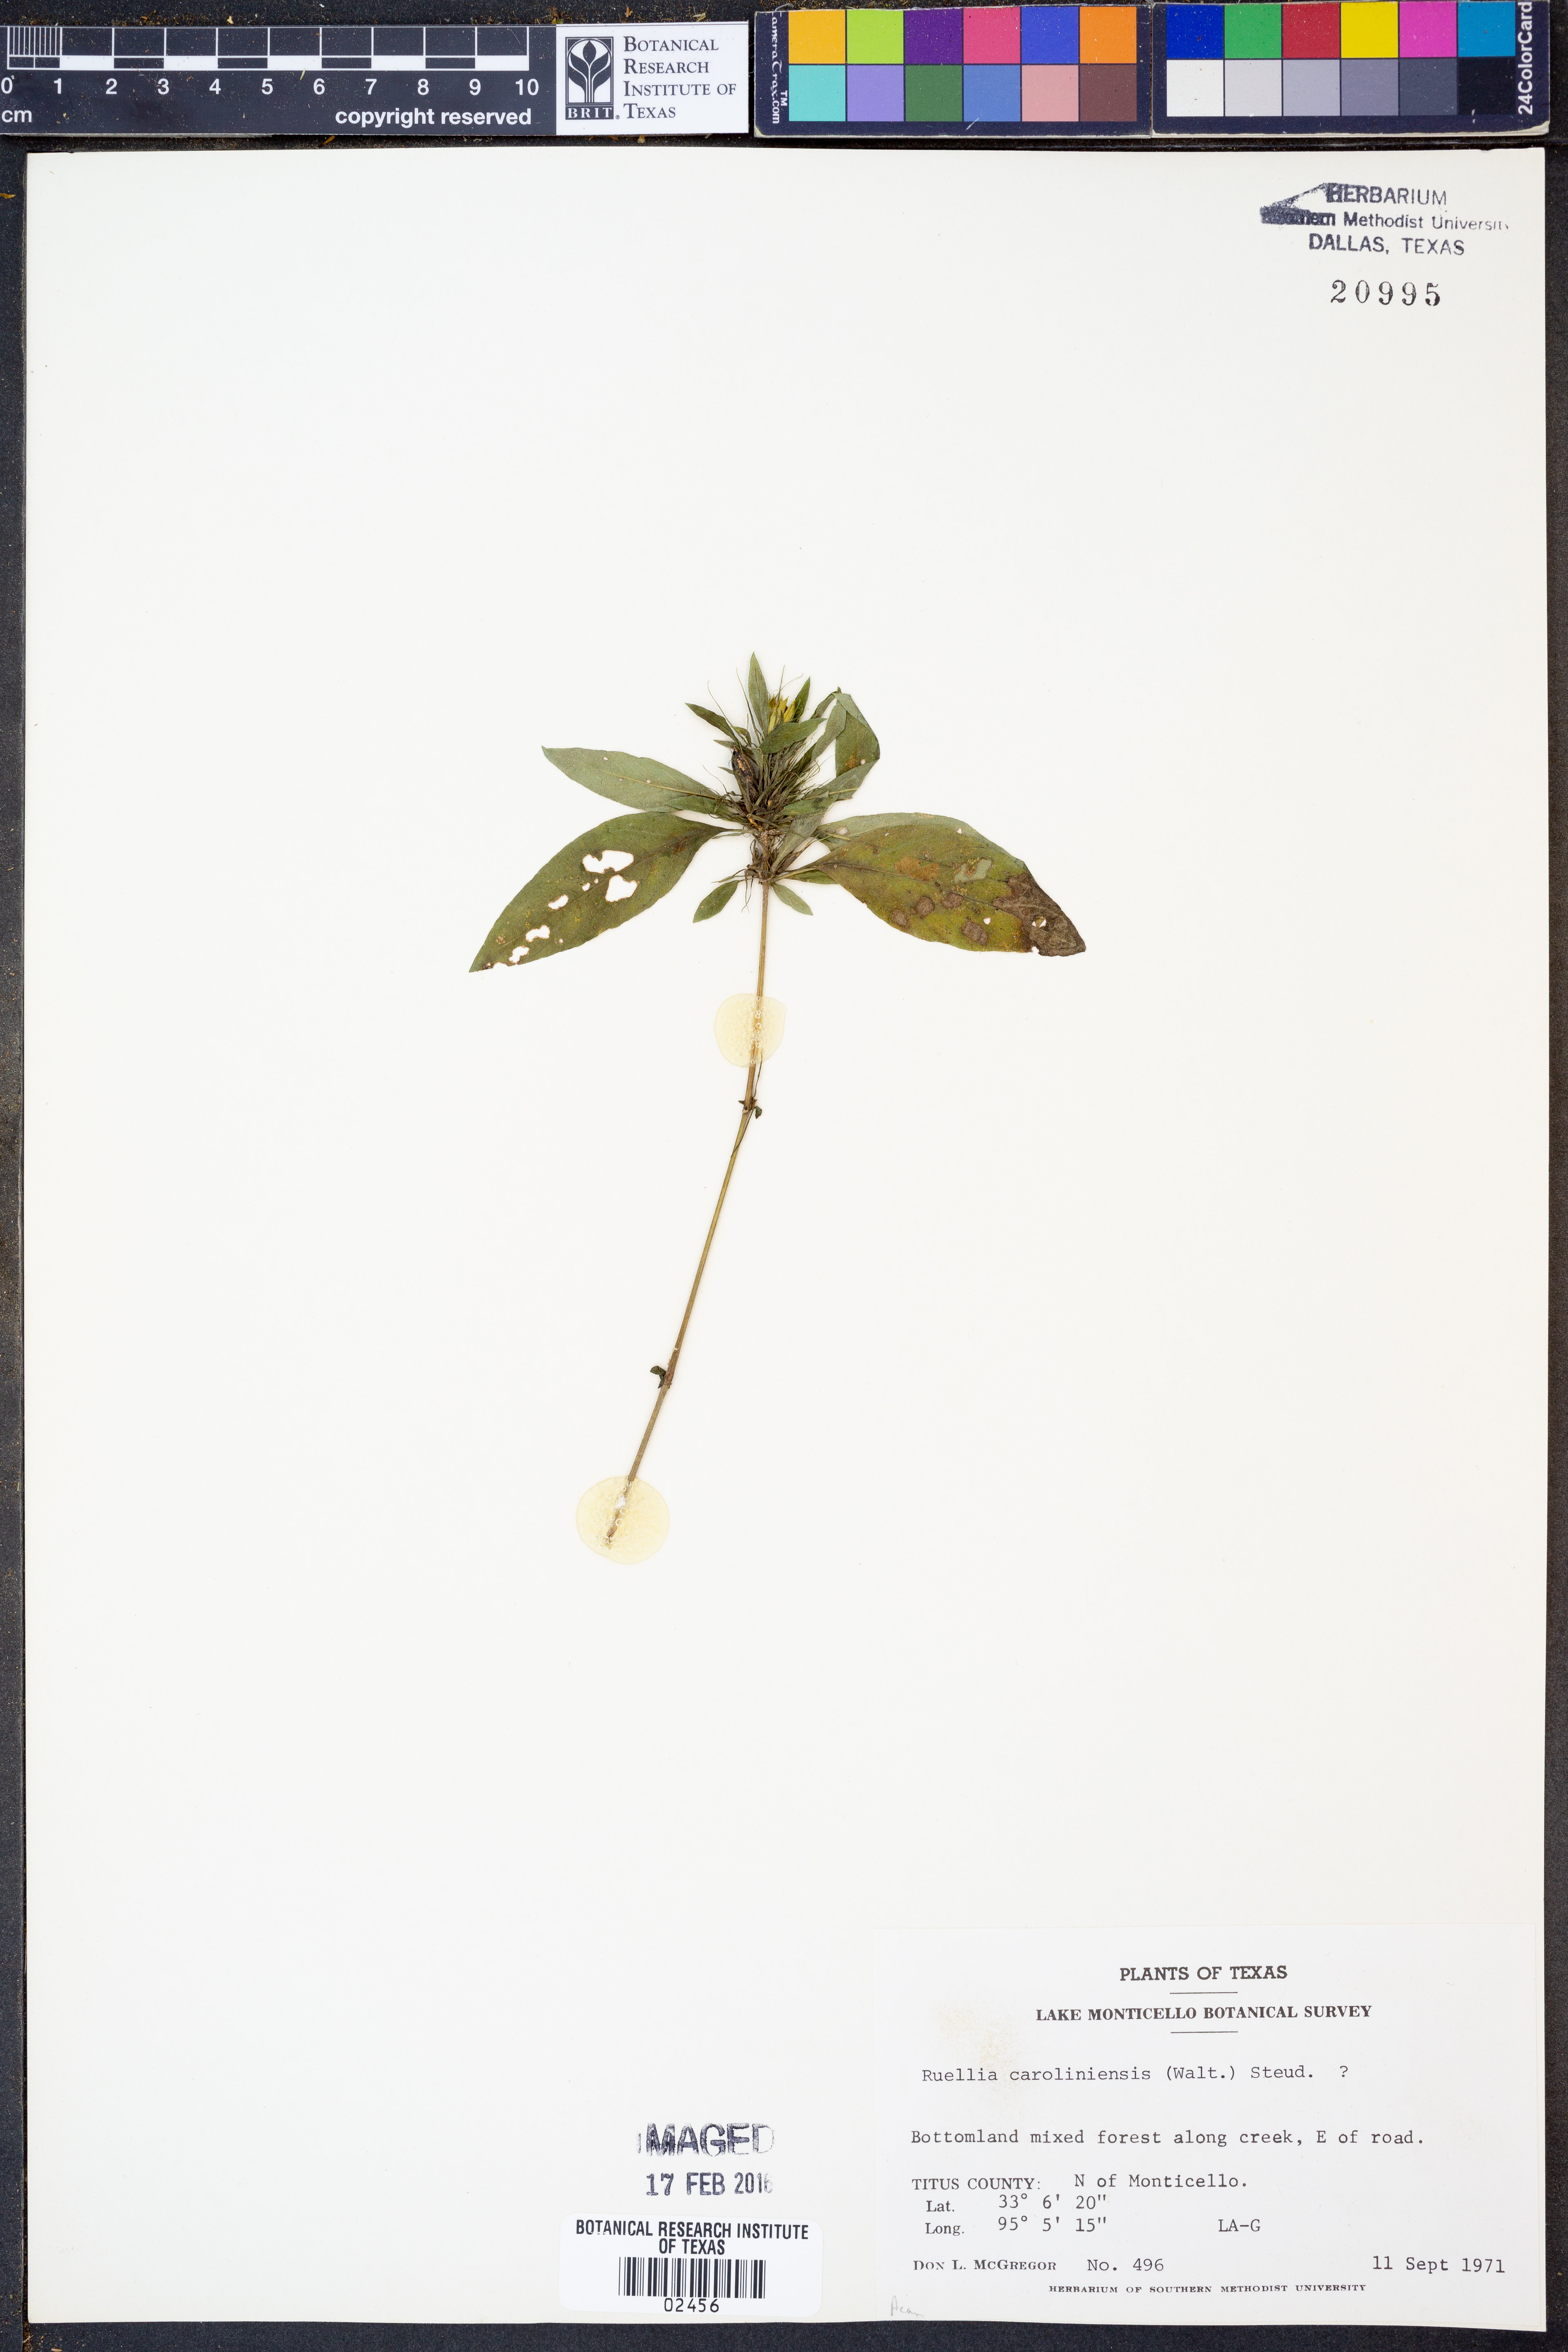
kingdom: Plantae
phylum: Tracheophyta
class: Magnoliopsida
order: Lamiales
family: Acanthaceae
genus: Ruellia
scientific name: Ruellia caroliniensis
